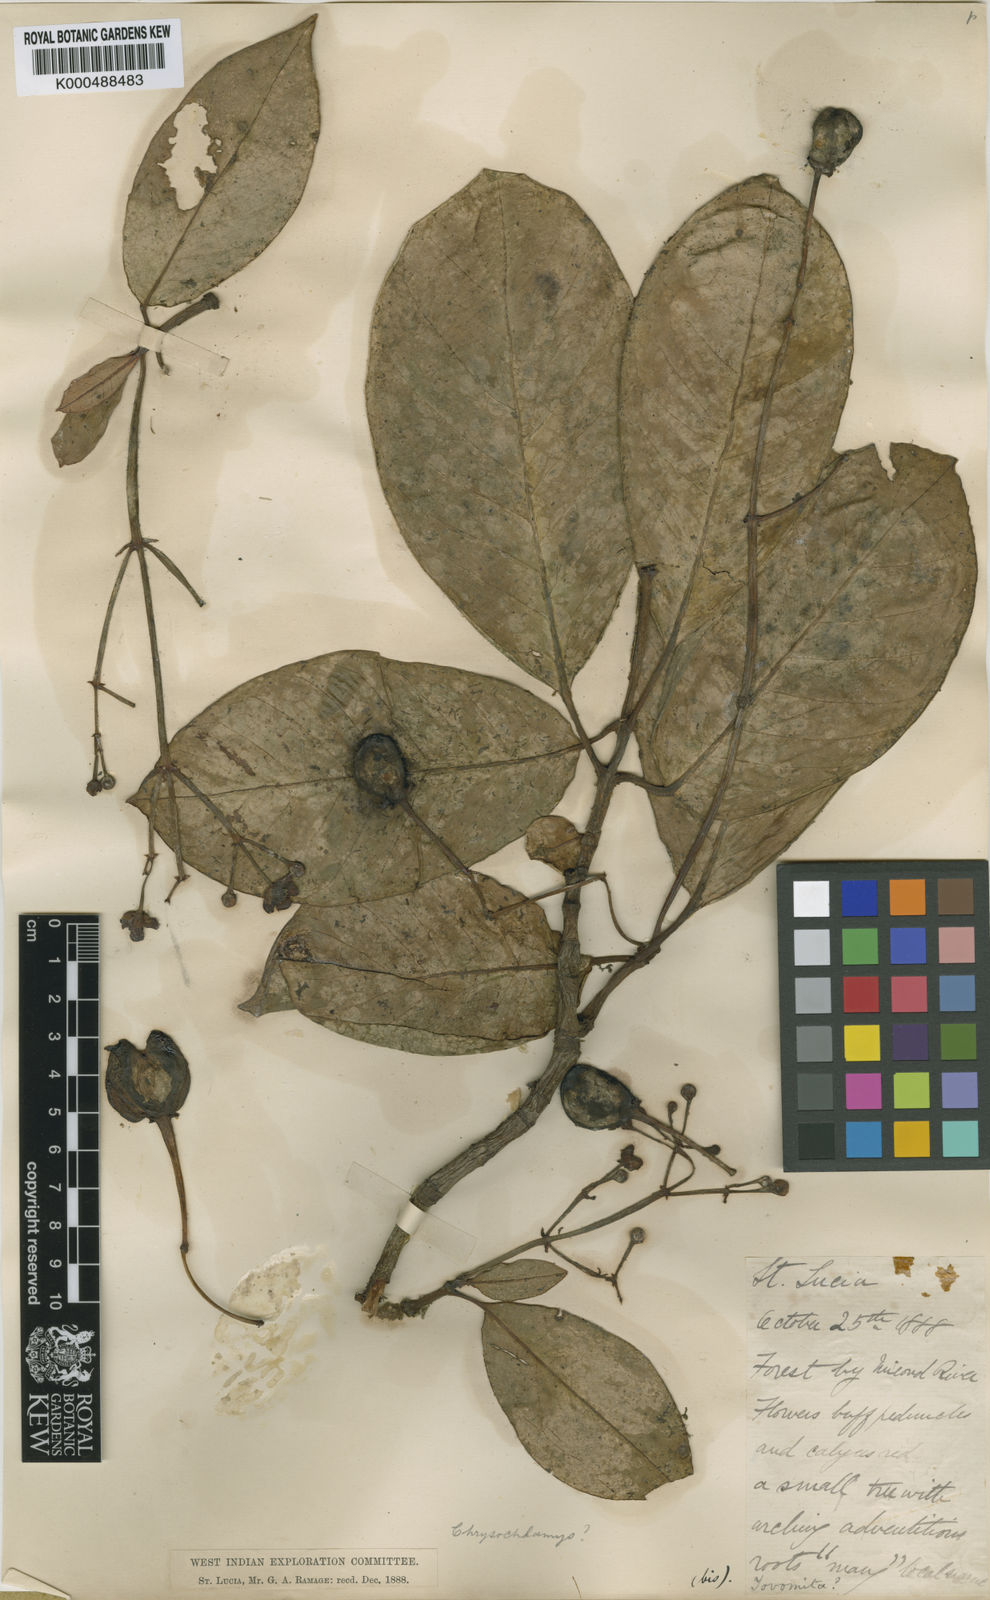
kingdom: Plantae
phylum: Tracheophyta
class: Magnoliopsida
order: Malpighiales
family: Clusiaceae
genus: Chrysochlamys
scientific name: Chrysochlamys caribaea
